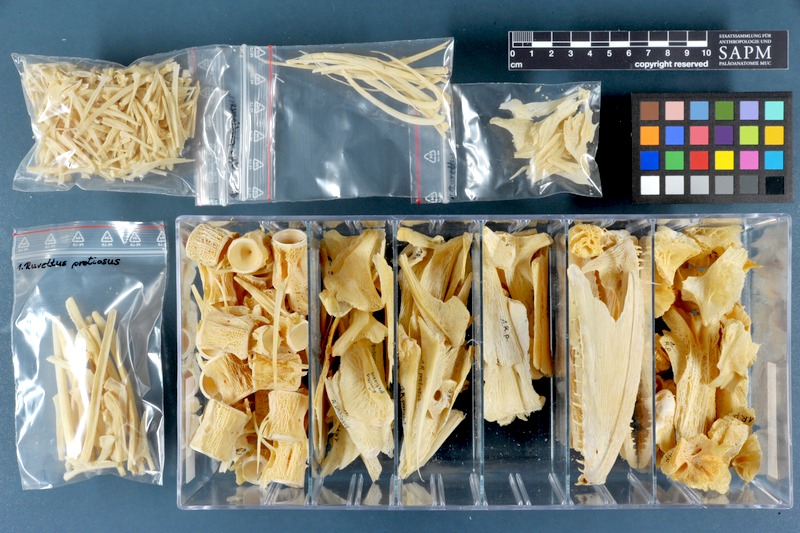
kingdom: Animalia
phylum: Chordata
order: Perciformes
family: Gempylidae
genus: Ruvettus
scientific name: Ruvettus pretiosus
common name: Oilfish
